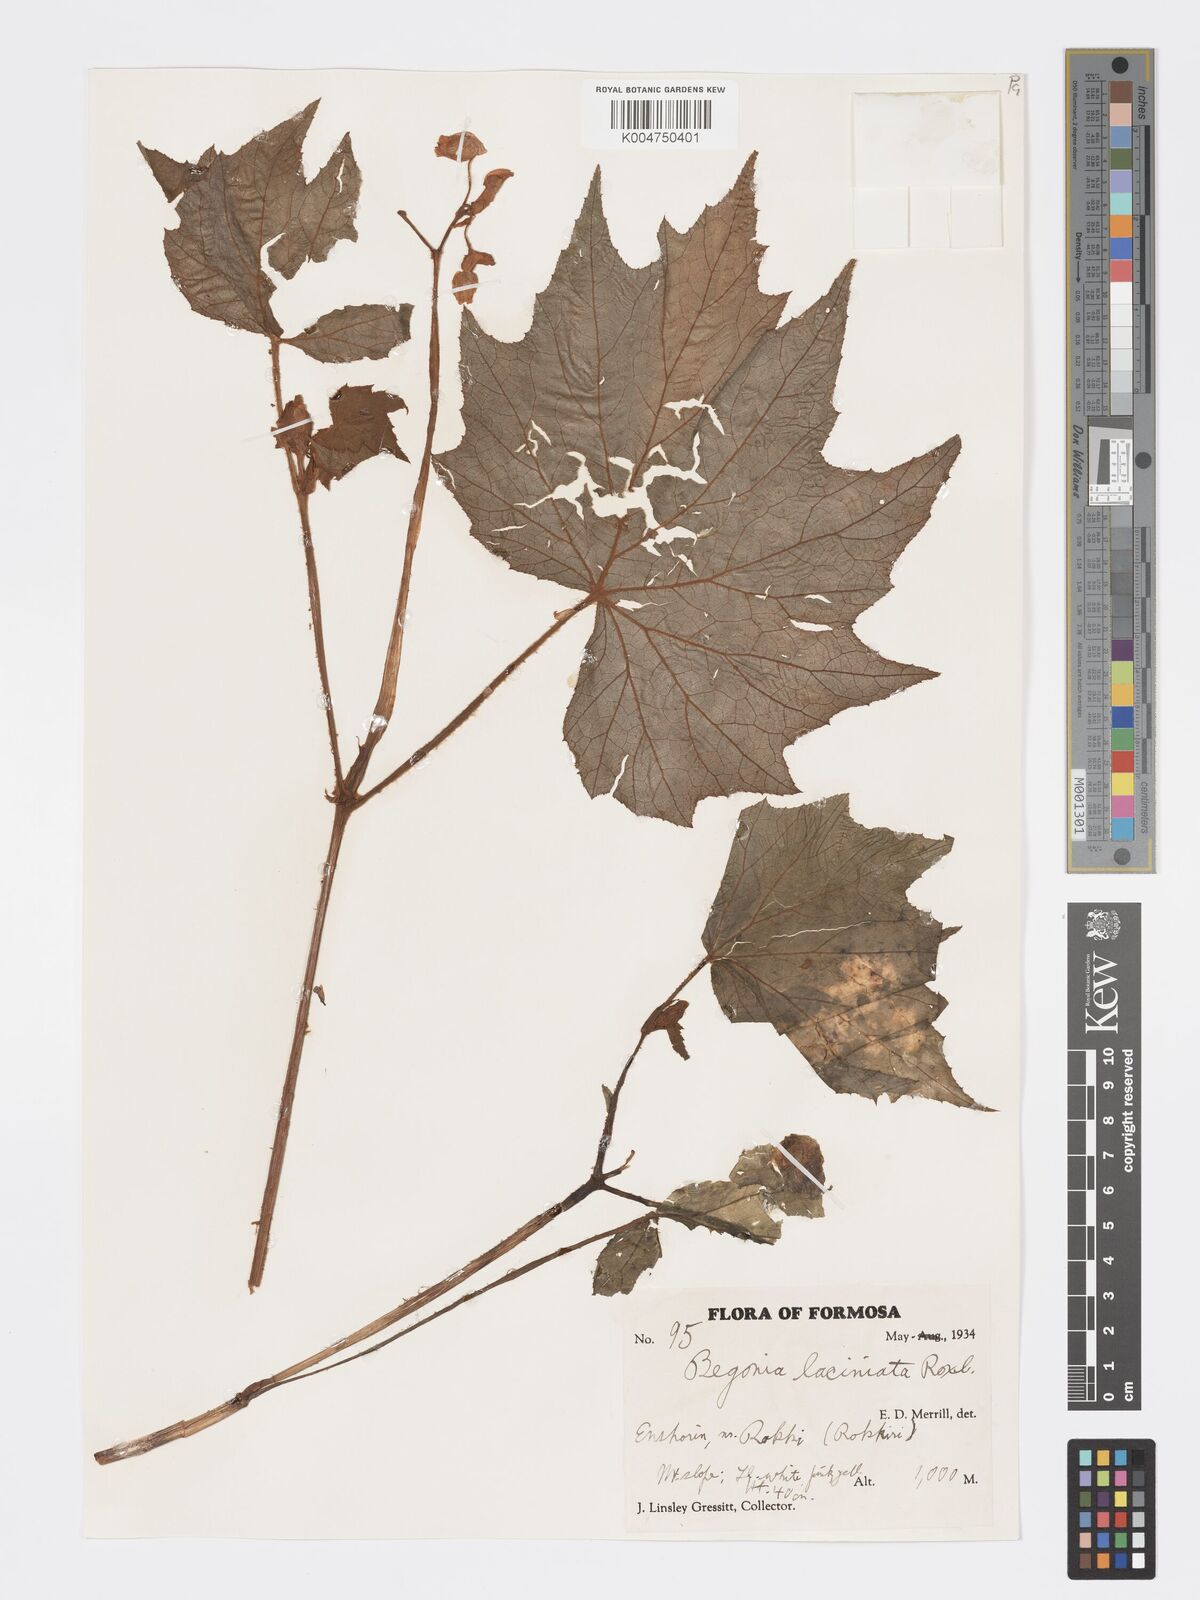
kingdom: Plantae
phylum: Tracheophyta
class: Magnoliopsida
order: Cucurbitales
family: Begoniaceae
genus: Begonia
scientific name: Begonia palmata
